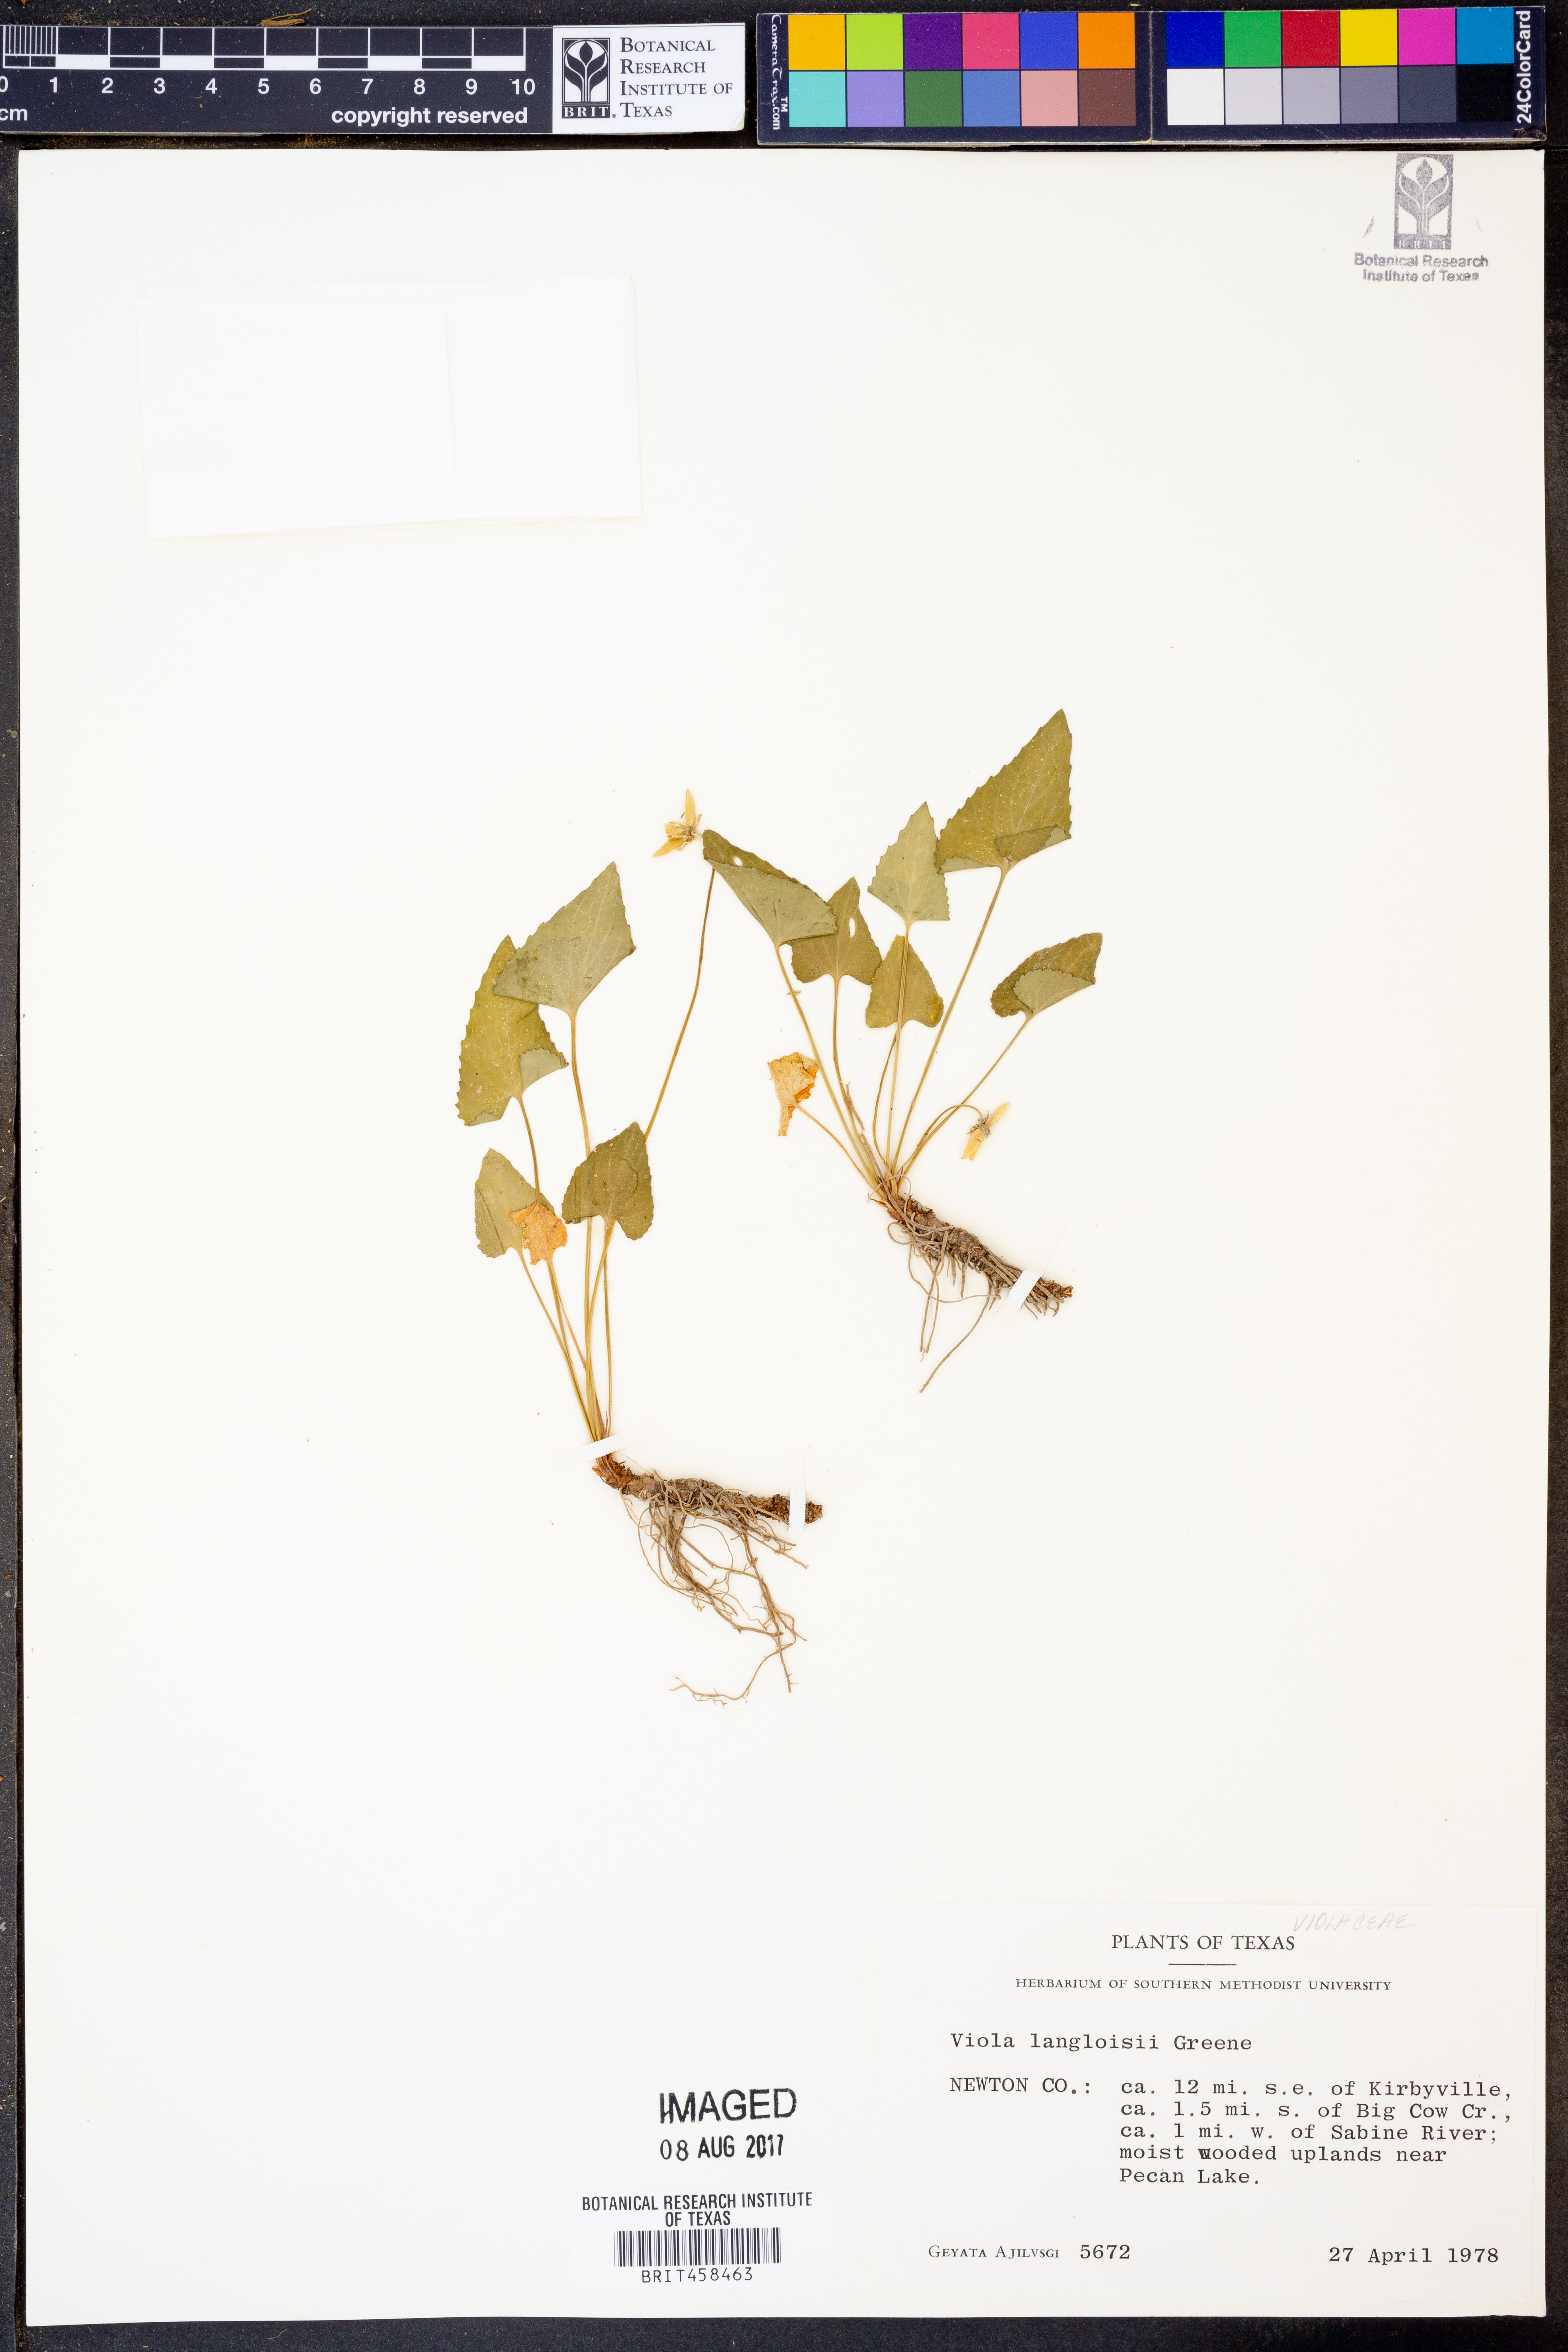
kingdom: Plantae
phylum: Tracheophyta
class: Magnoliopsida
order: Malpighiales
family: Violaceae
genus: Viola
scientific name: Viola langloisii
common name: Langlois' violet
